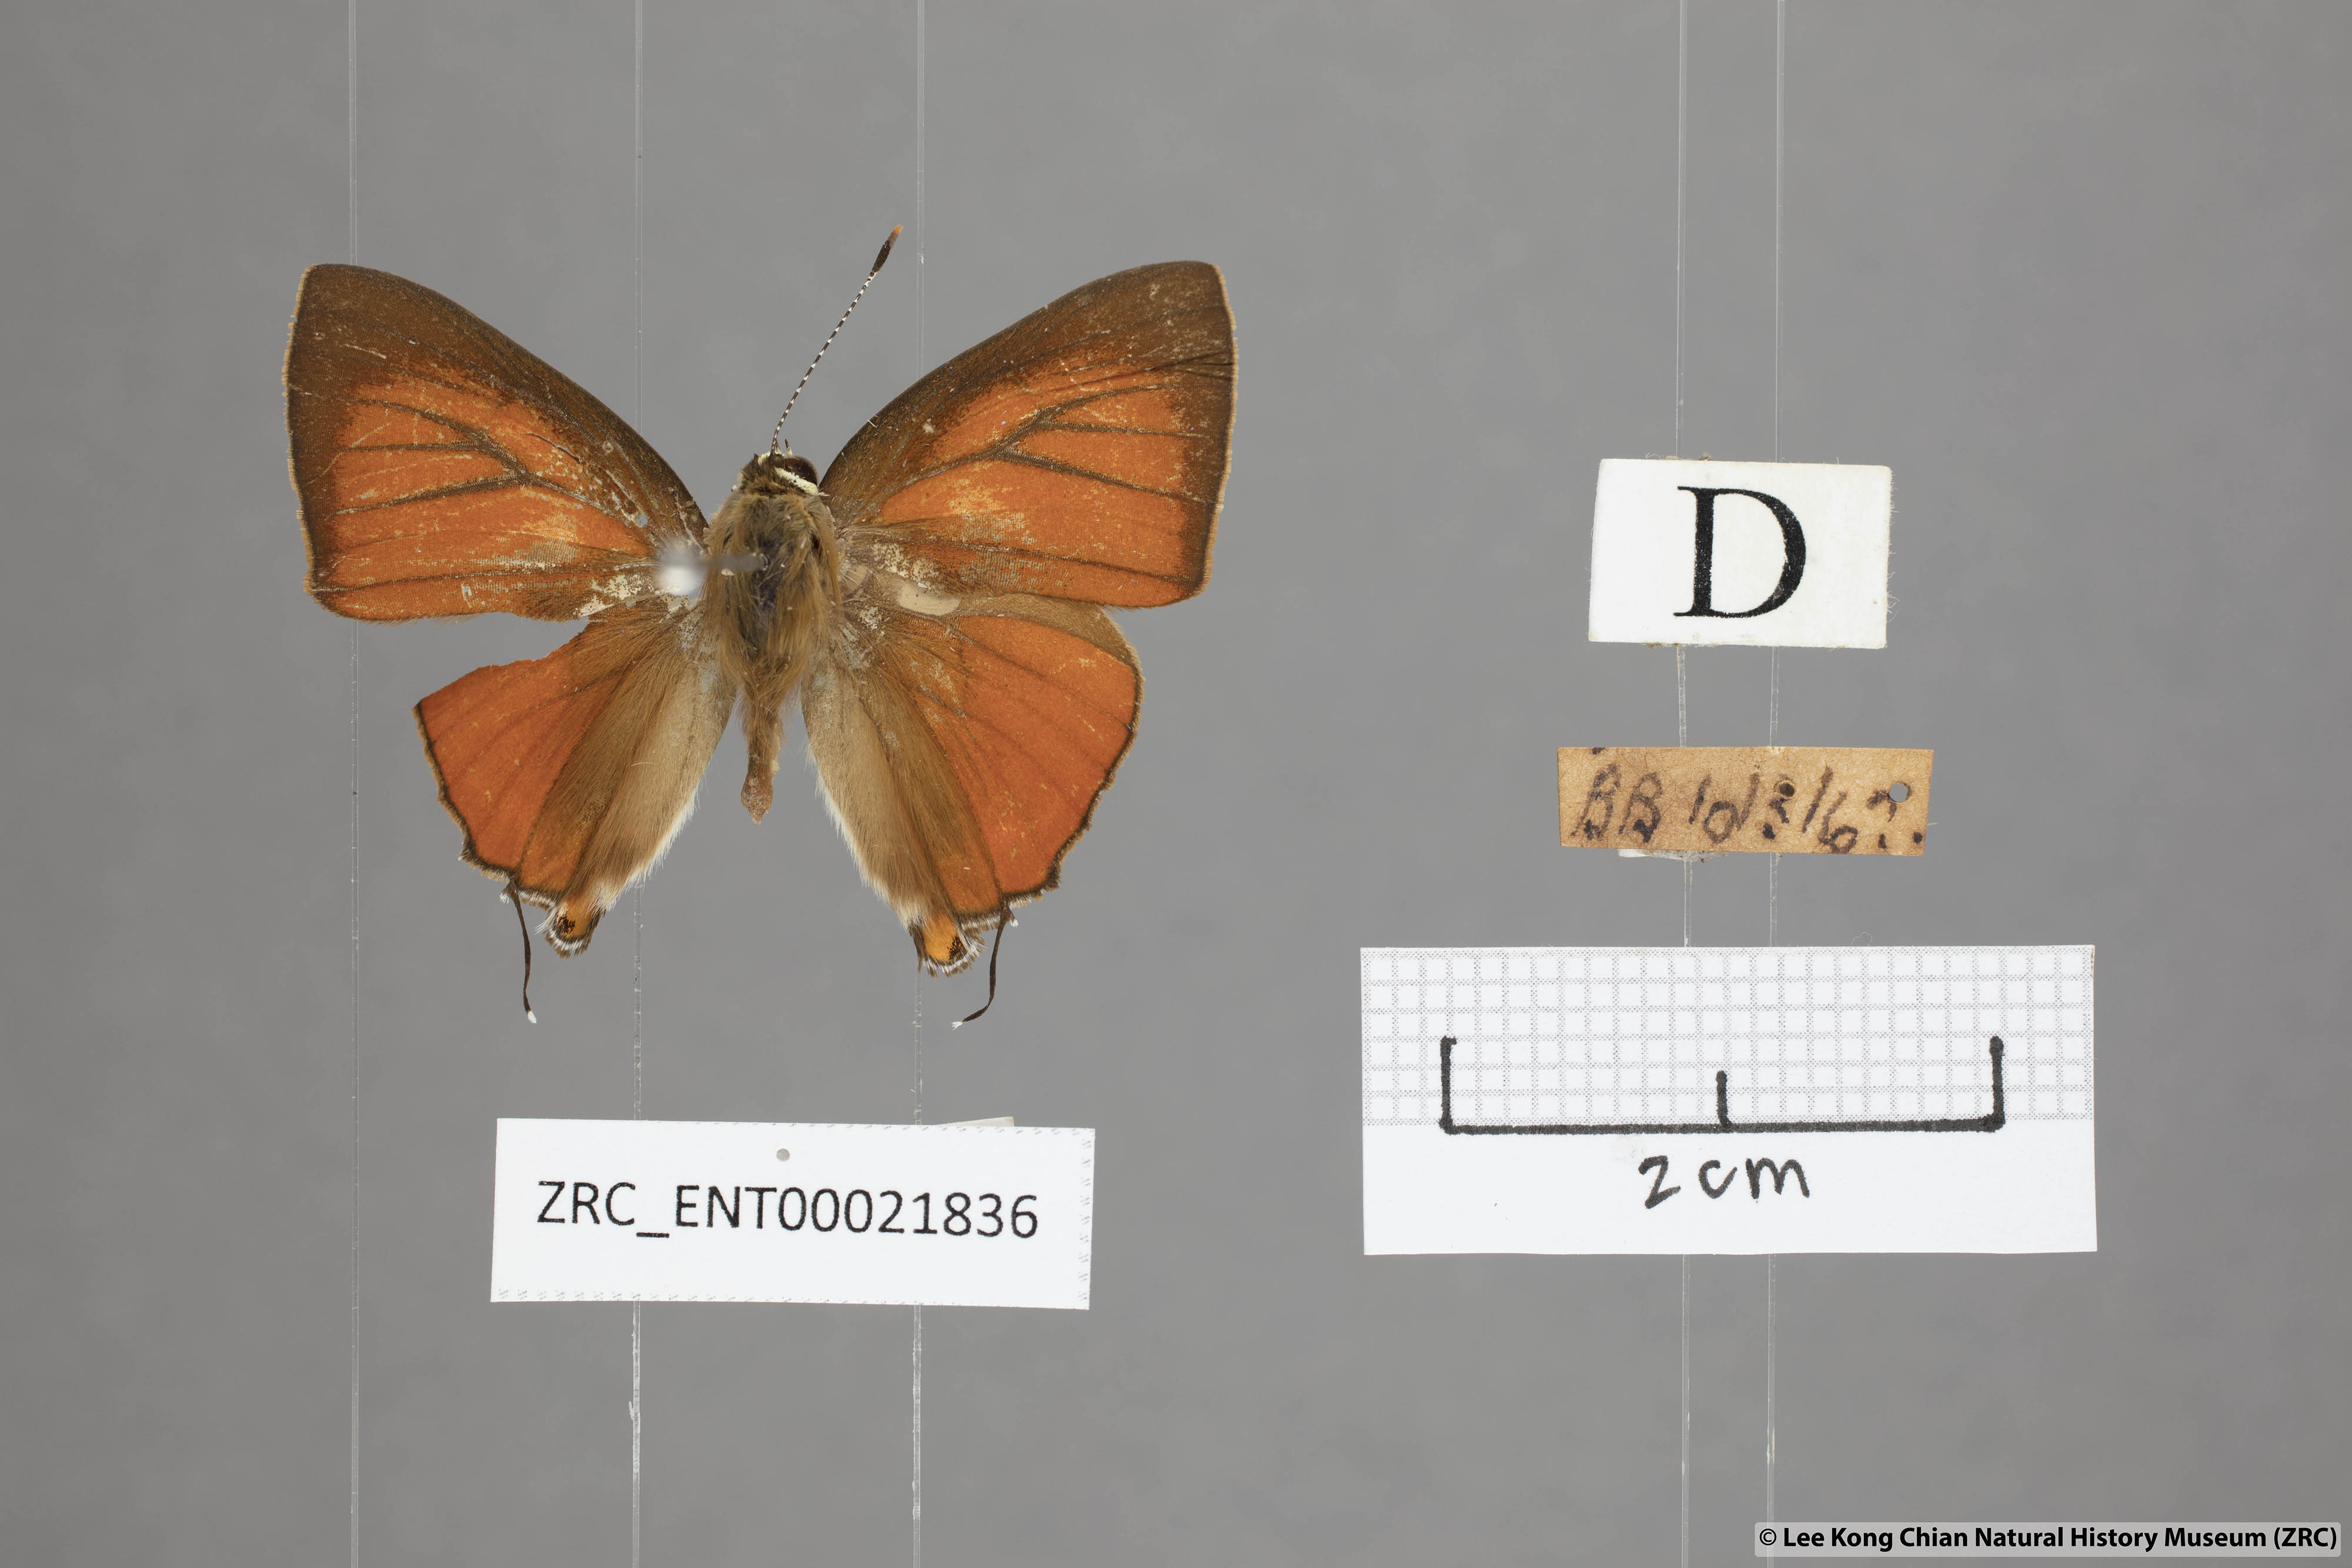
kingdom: Animalia
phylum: Arthropoda
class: Insecta
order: Lepidoptera
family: Lycaenidae
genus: Rapala
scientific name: Rapala iarbas
